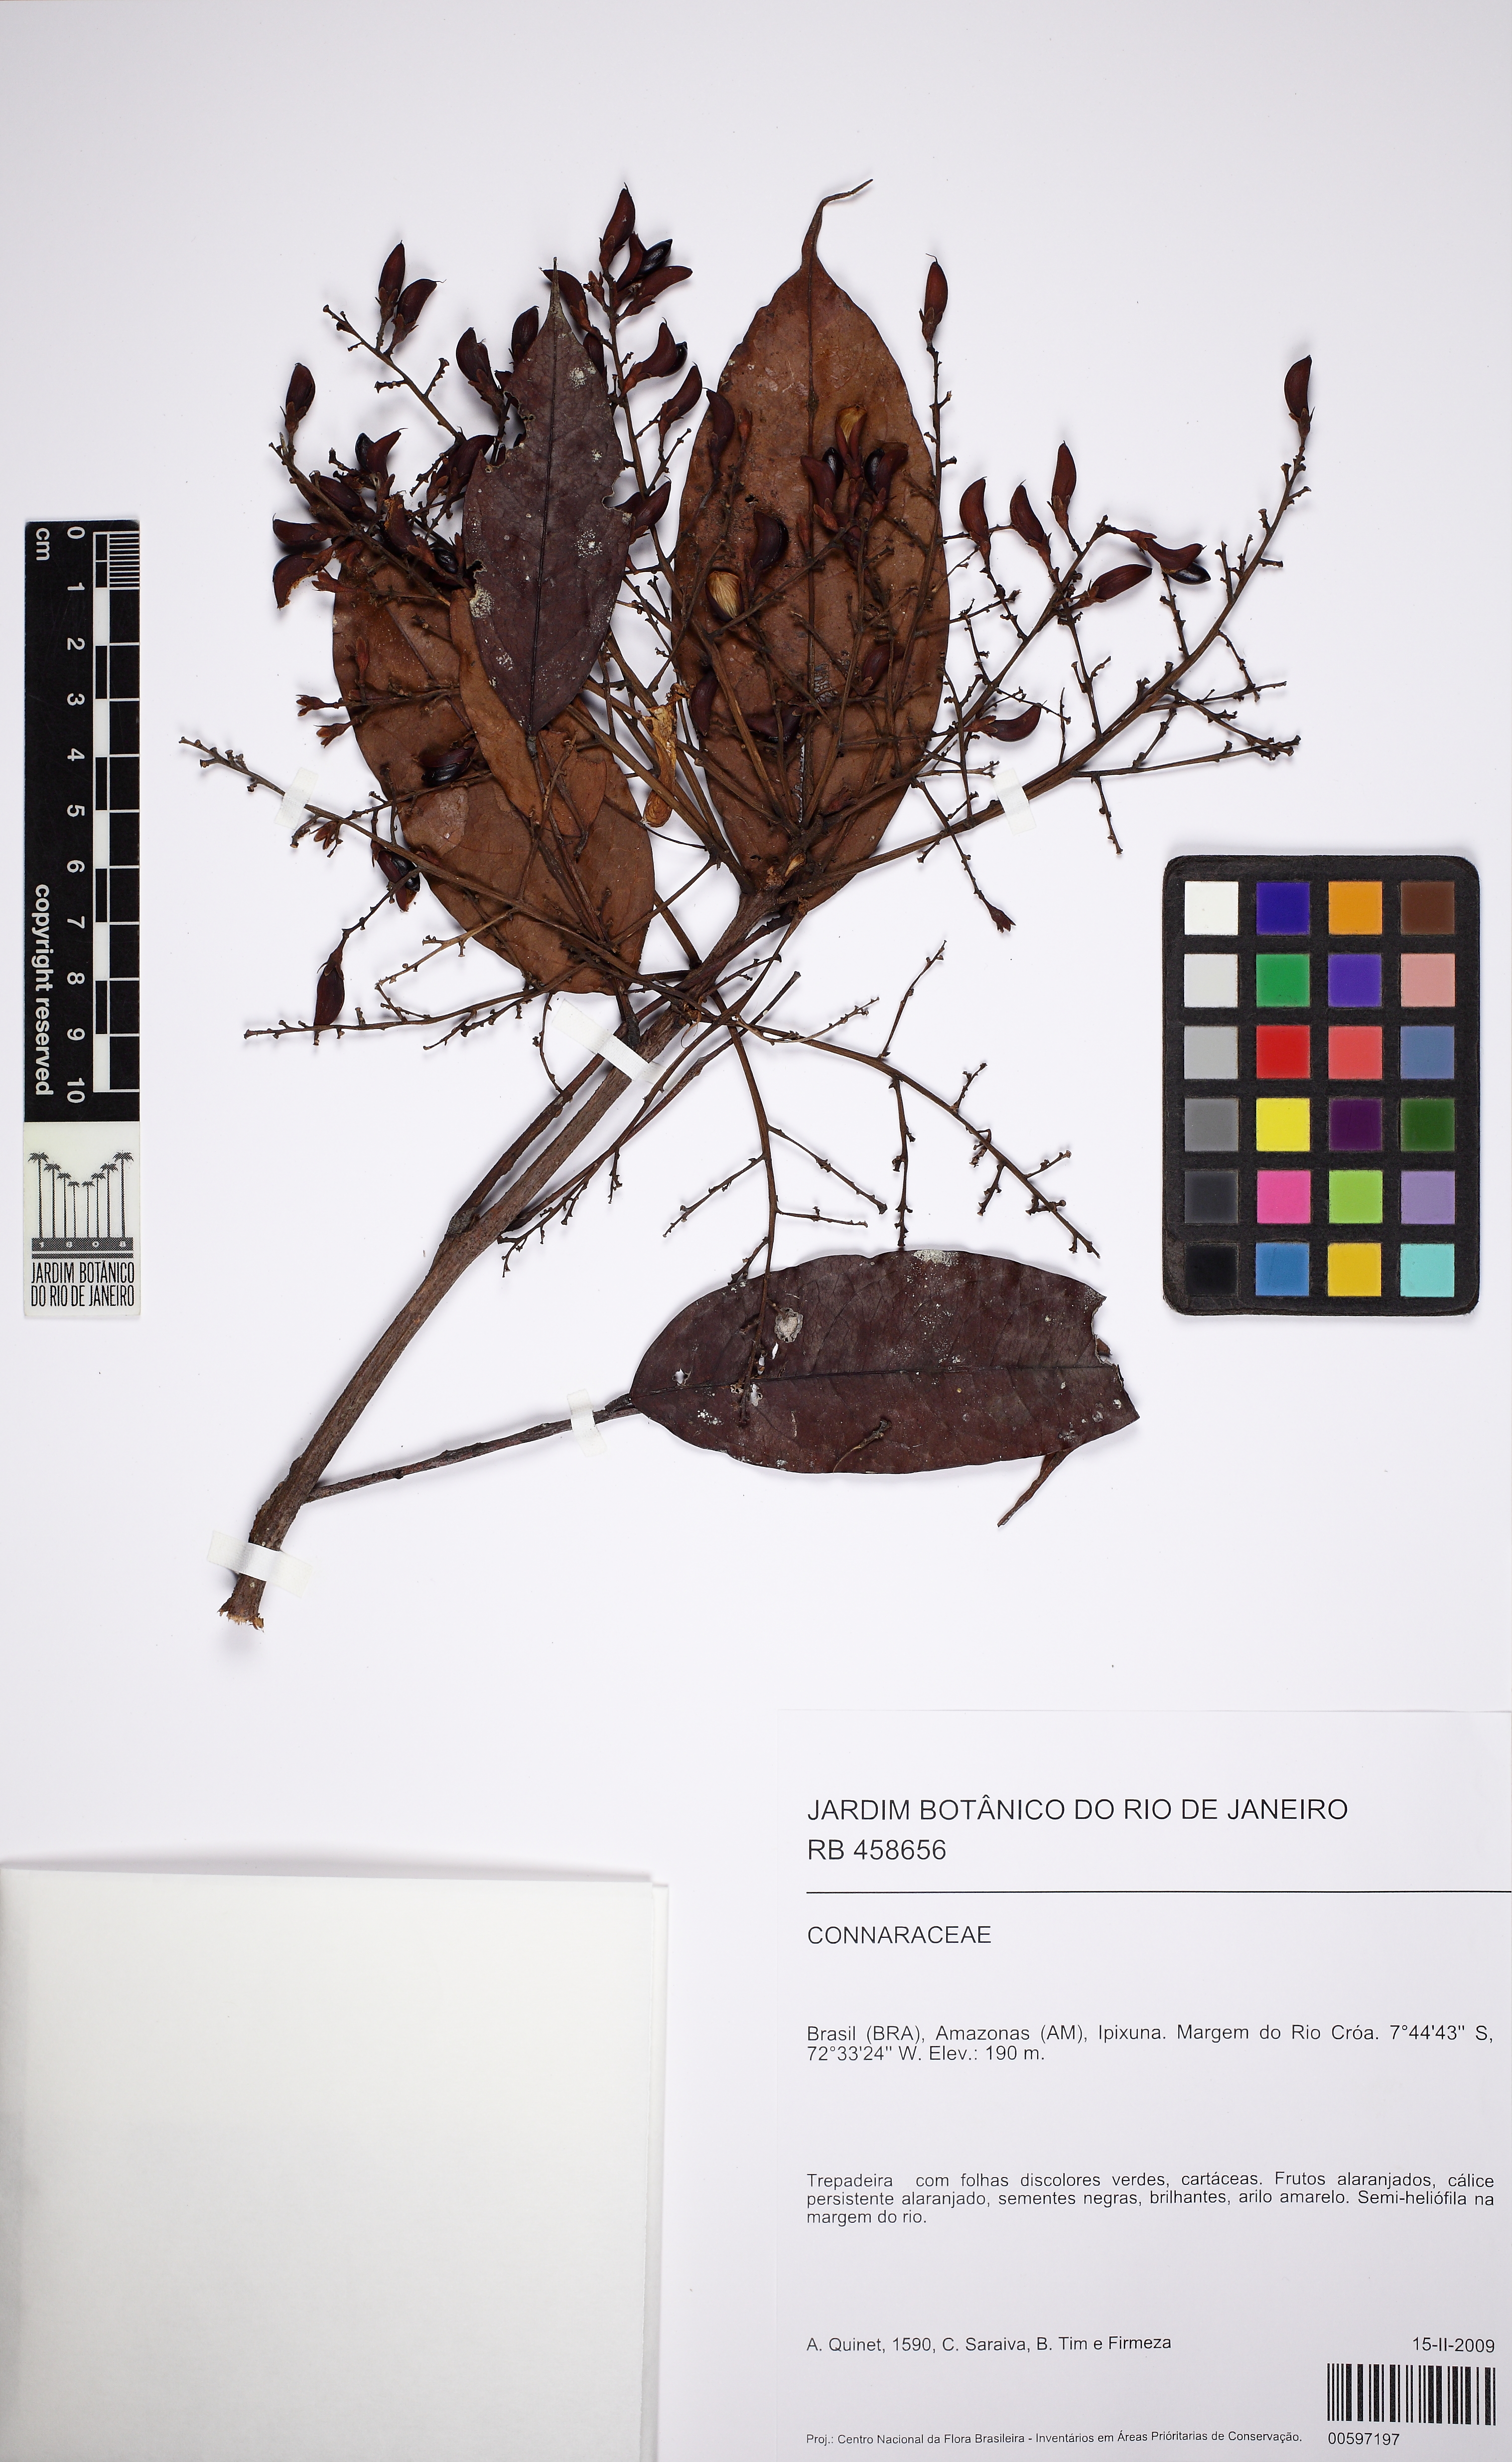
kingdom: Plantae
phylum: Tracheophyta
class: Magnoliopsida
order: Oxalidales
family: Connaraceae
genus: Rourea
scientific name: Rourea
